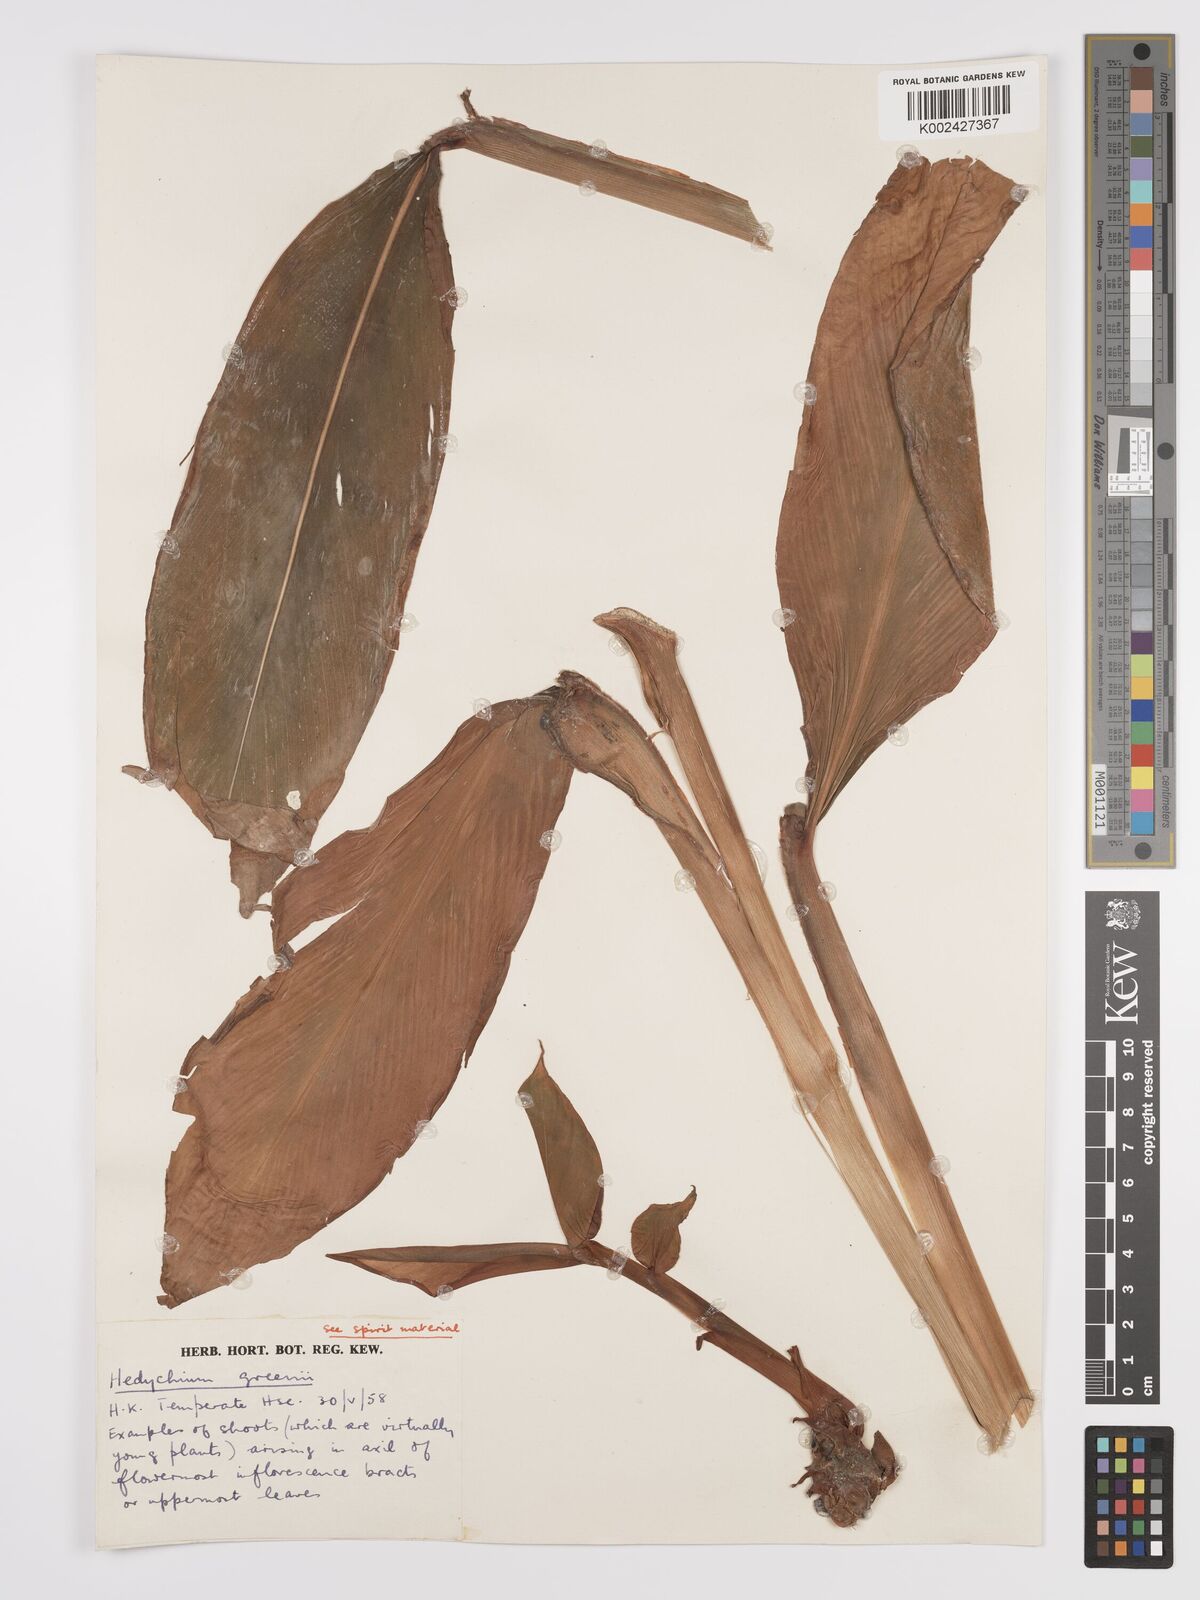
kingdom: Plantae
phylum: Tracheophyta
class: Liliopsida
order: Zingiberales
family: Zingiberaceae
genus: Hedychium
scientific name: Hedychium greenii
